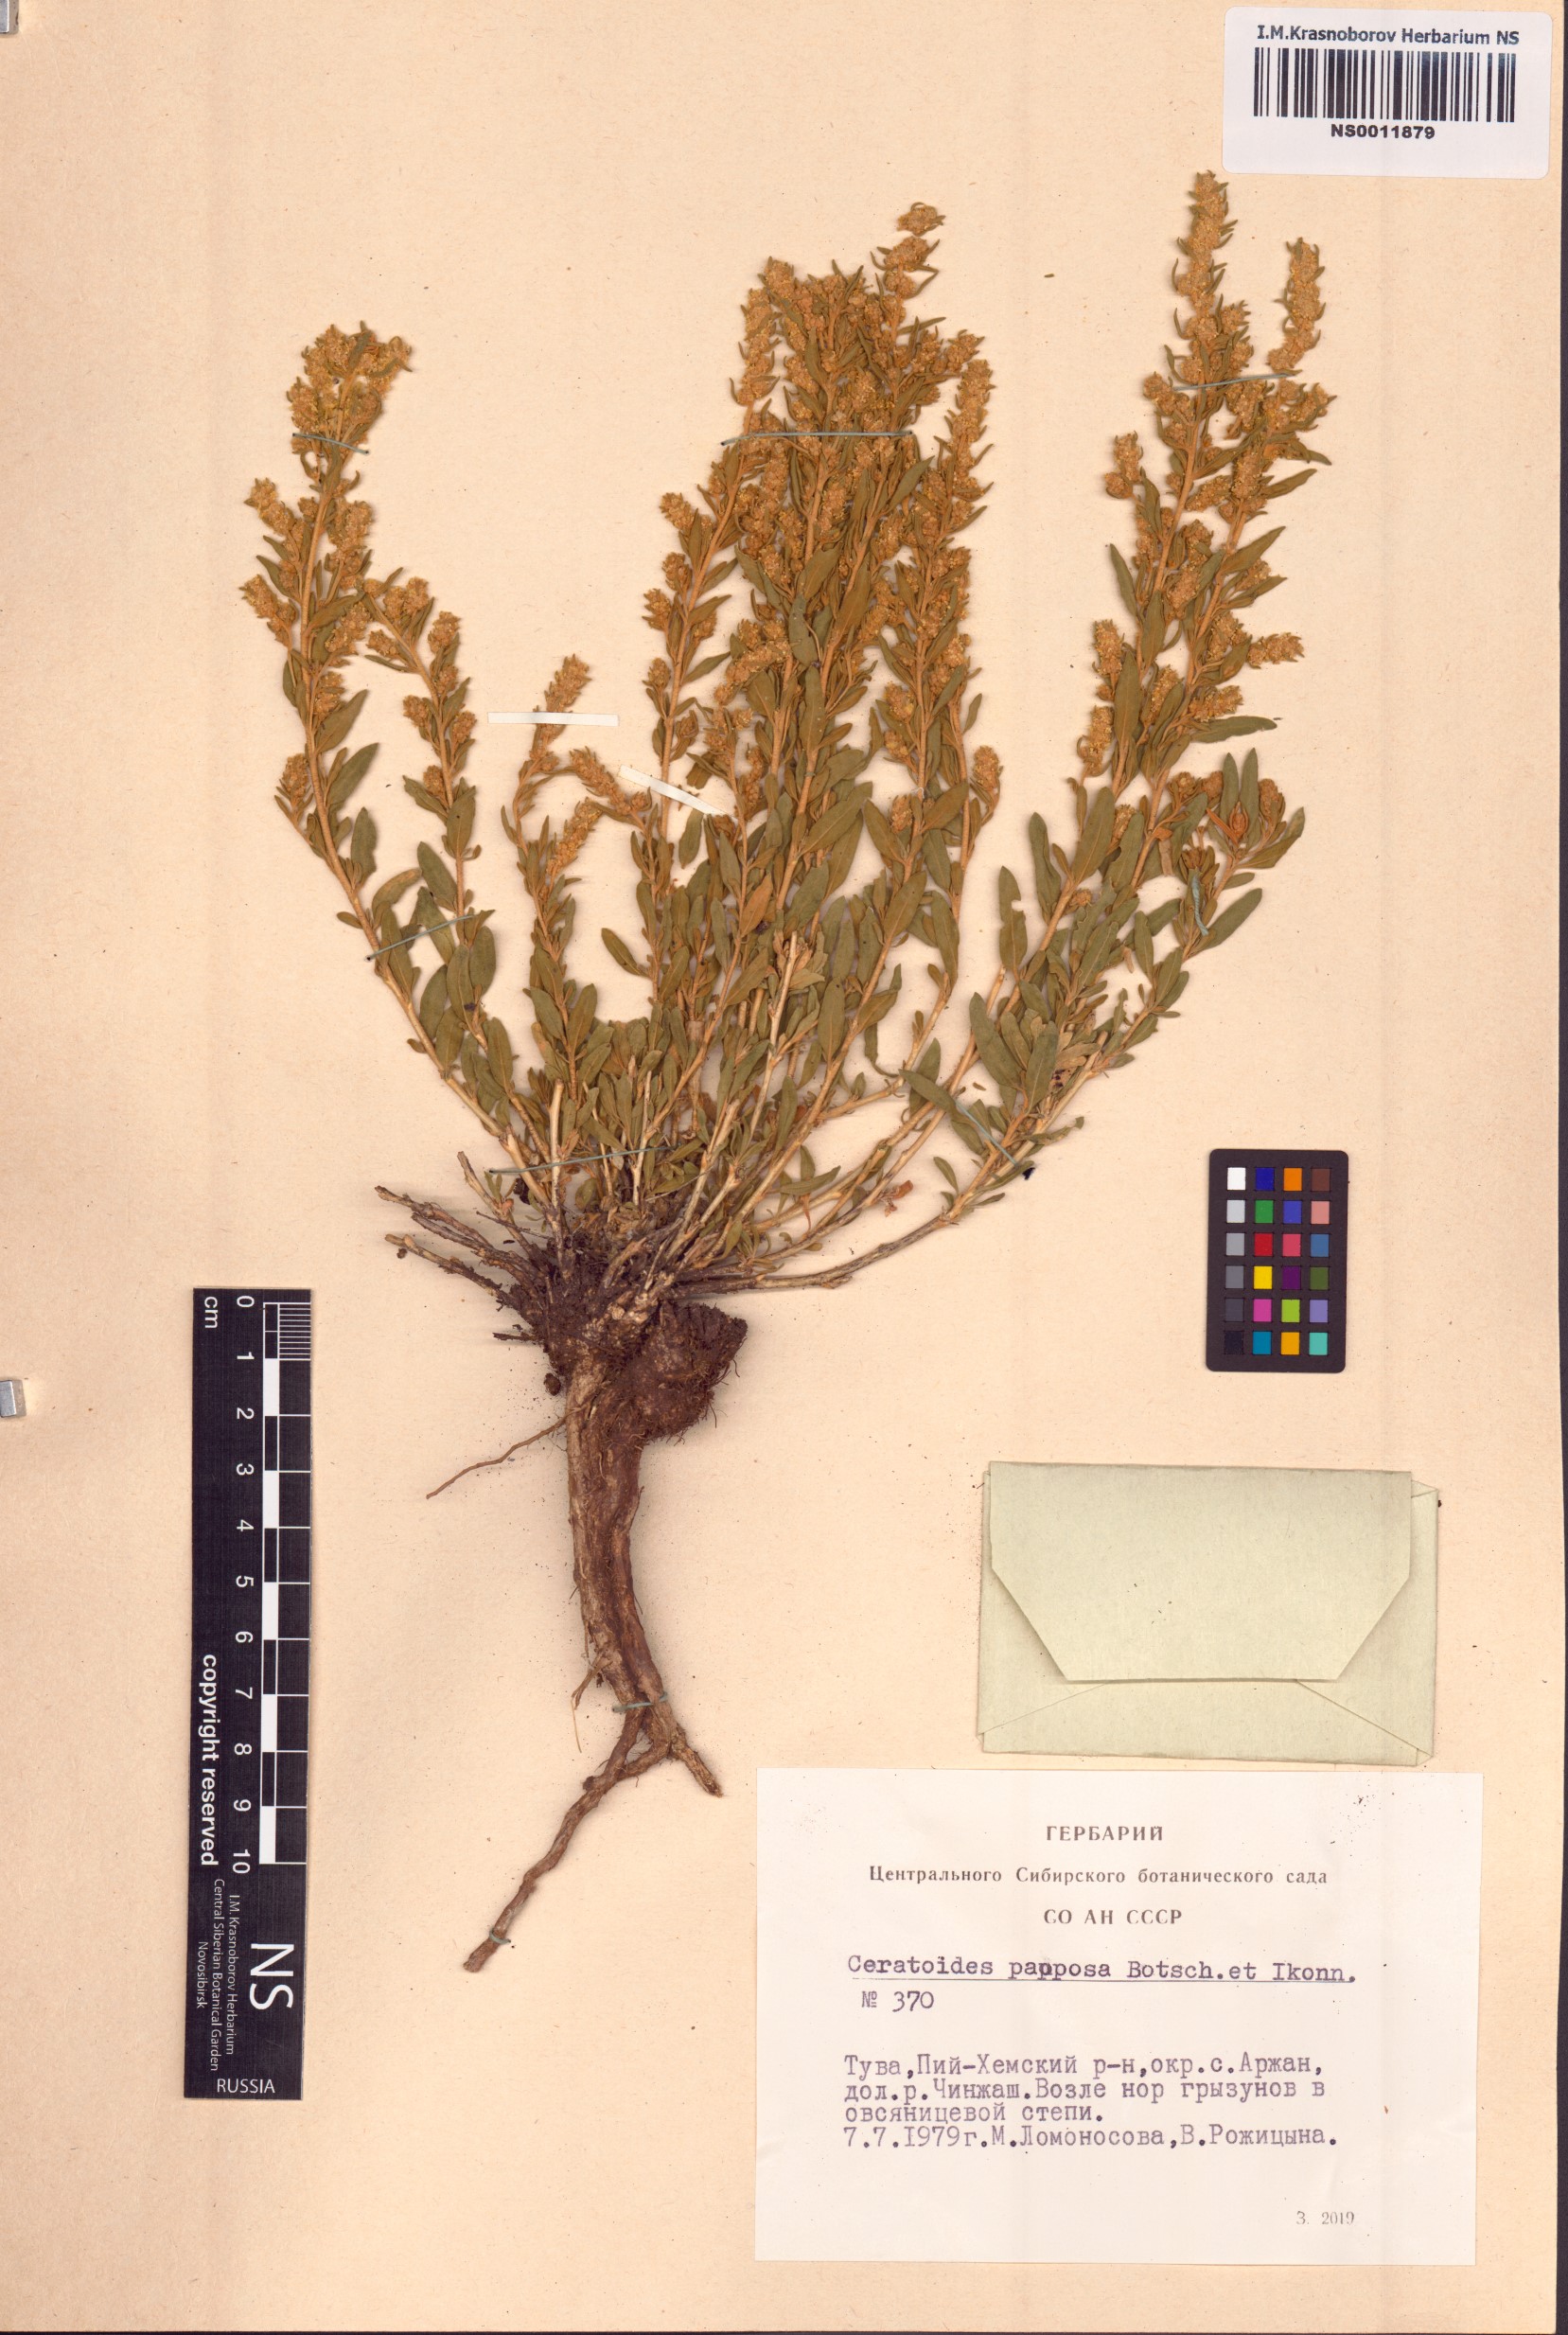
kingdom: Plantae
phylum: Tracheophyta
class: Magnoliopsida
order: Caryophyllales
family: Amaranthaceae
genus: Krascheninnikovia
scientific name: Krascheninnikovia ceratoides
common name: Pamirian winterfat
